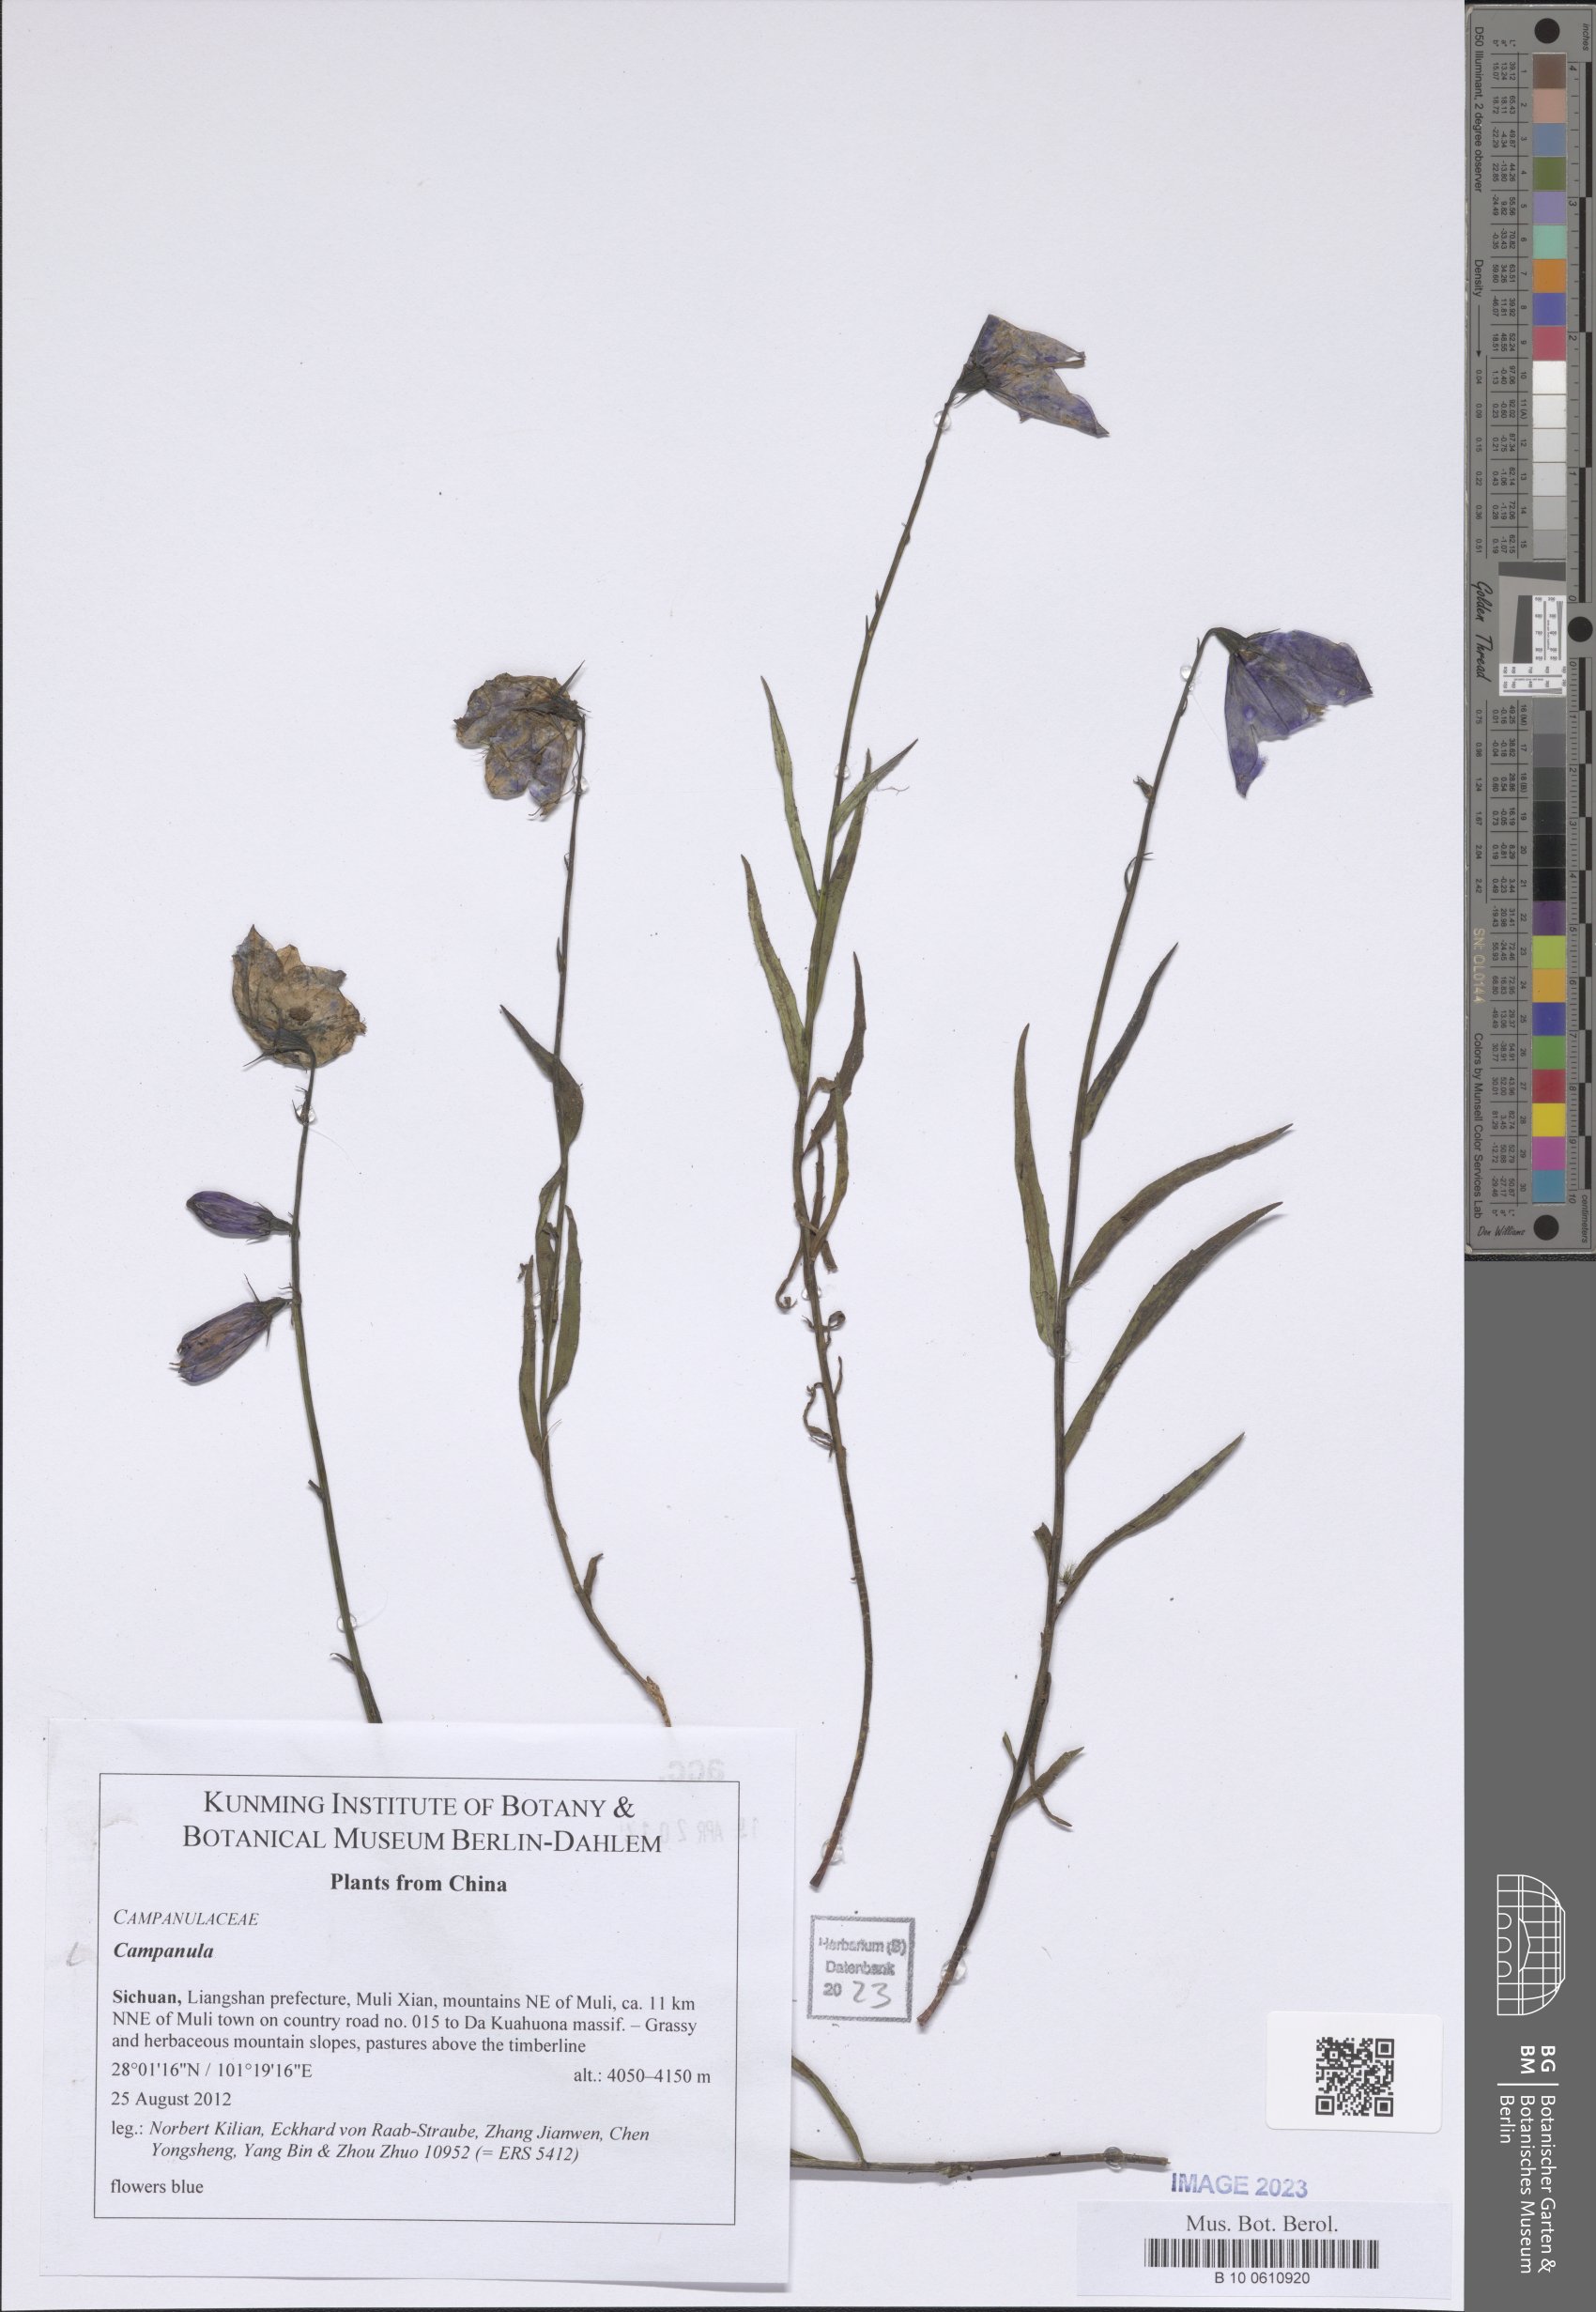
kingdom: Plantae
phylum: Tracheophyta
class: Magnoliopsida
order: Asterales
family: Campanulaceae
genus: Campanula
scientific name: Campanula
